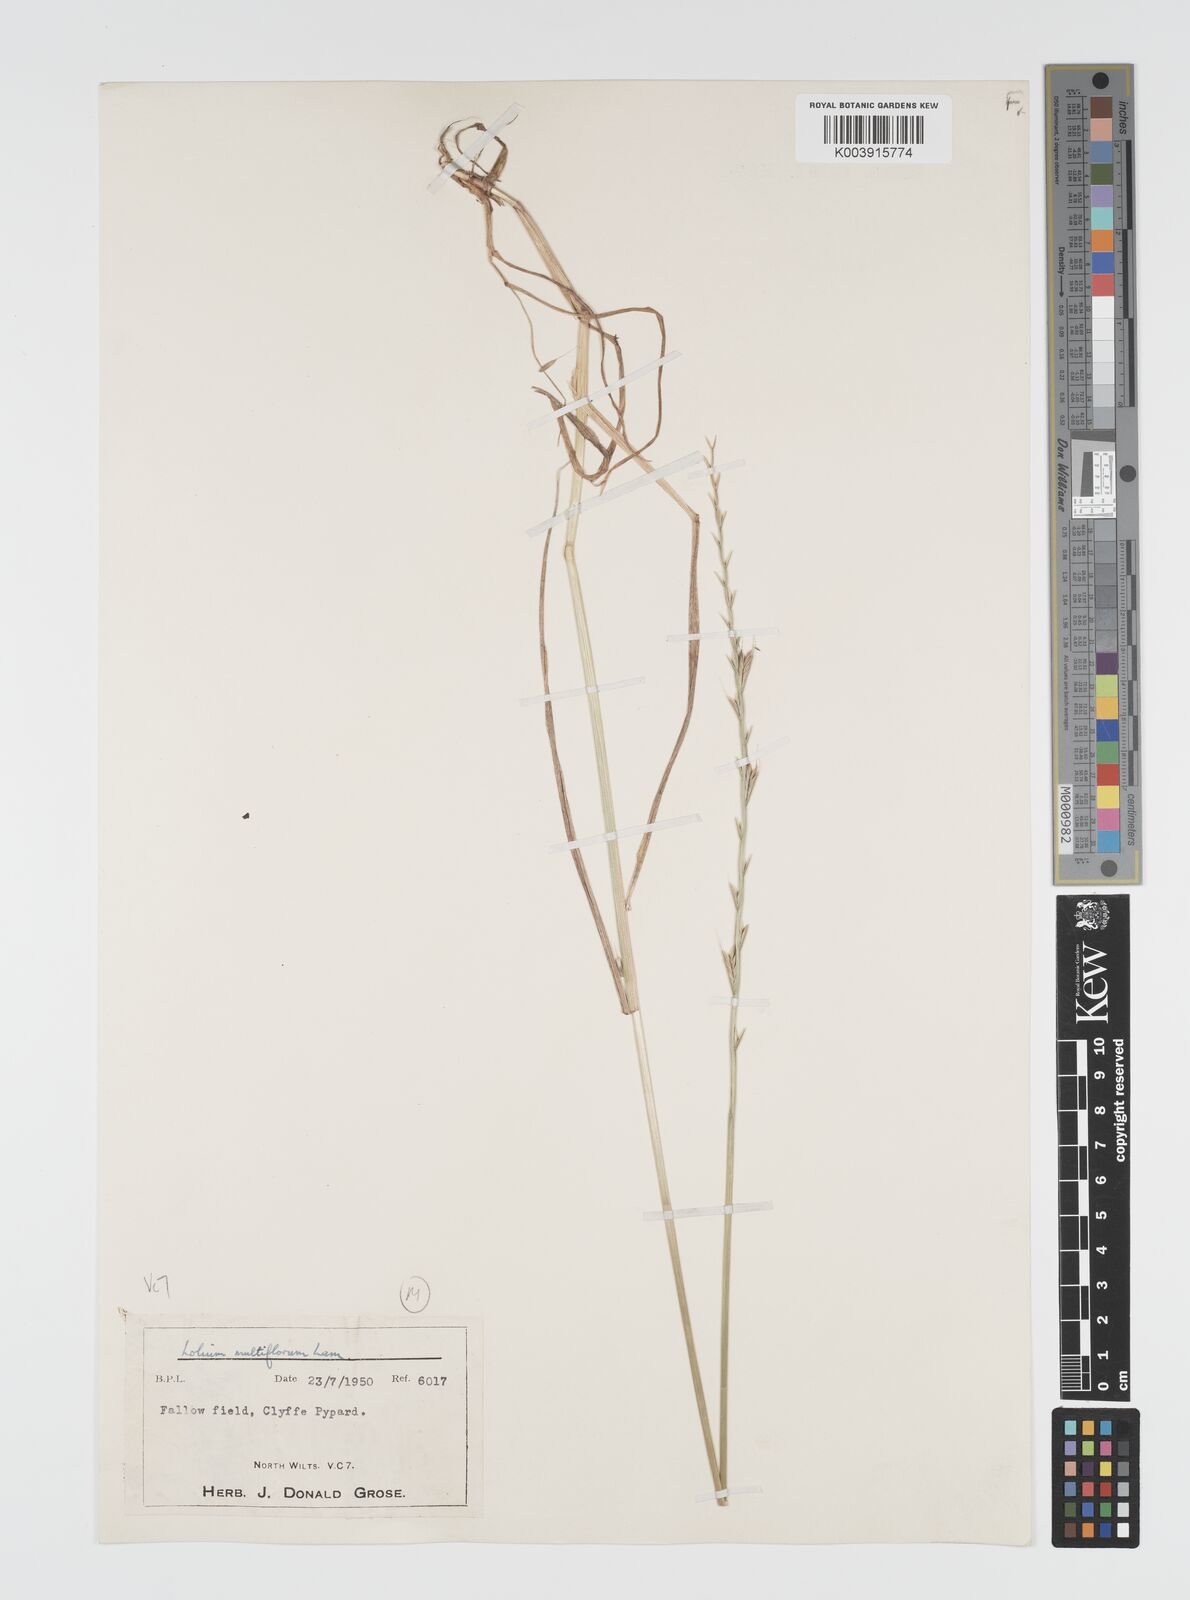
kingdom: Plantae
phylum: Tracheophyta
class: Liliopsida
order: Poales
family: Poaceae
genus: Lolium
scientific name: Lolium multiflorum
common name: Annual ryegrass
